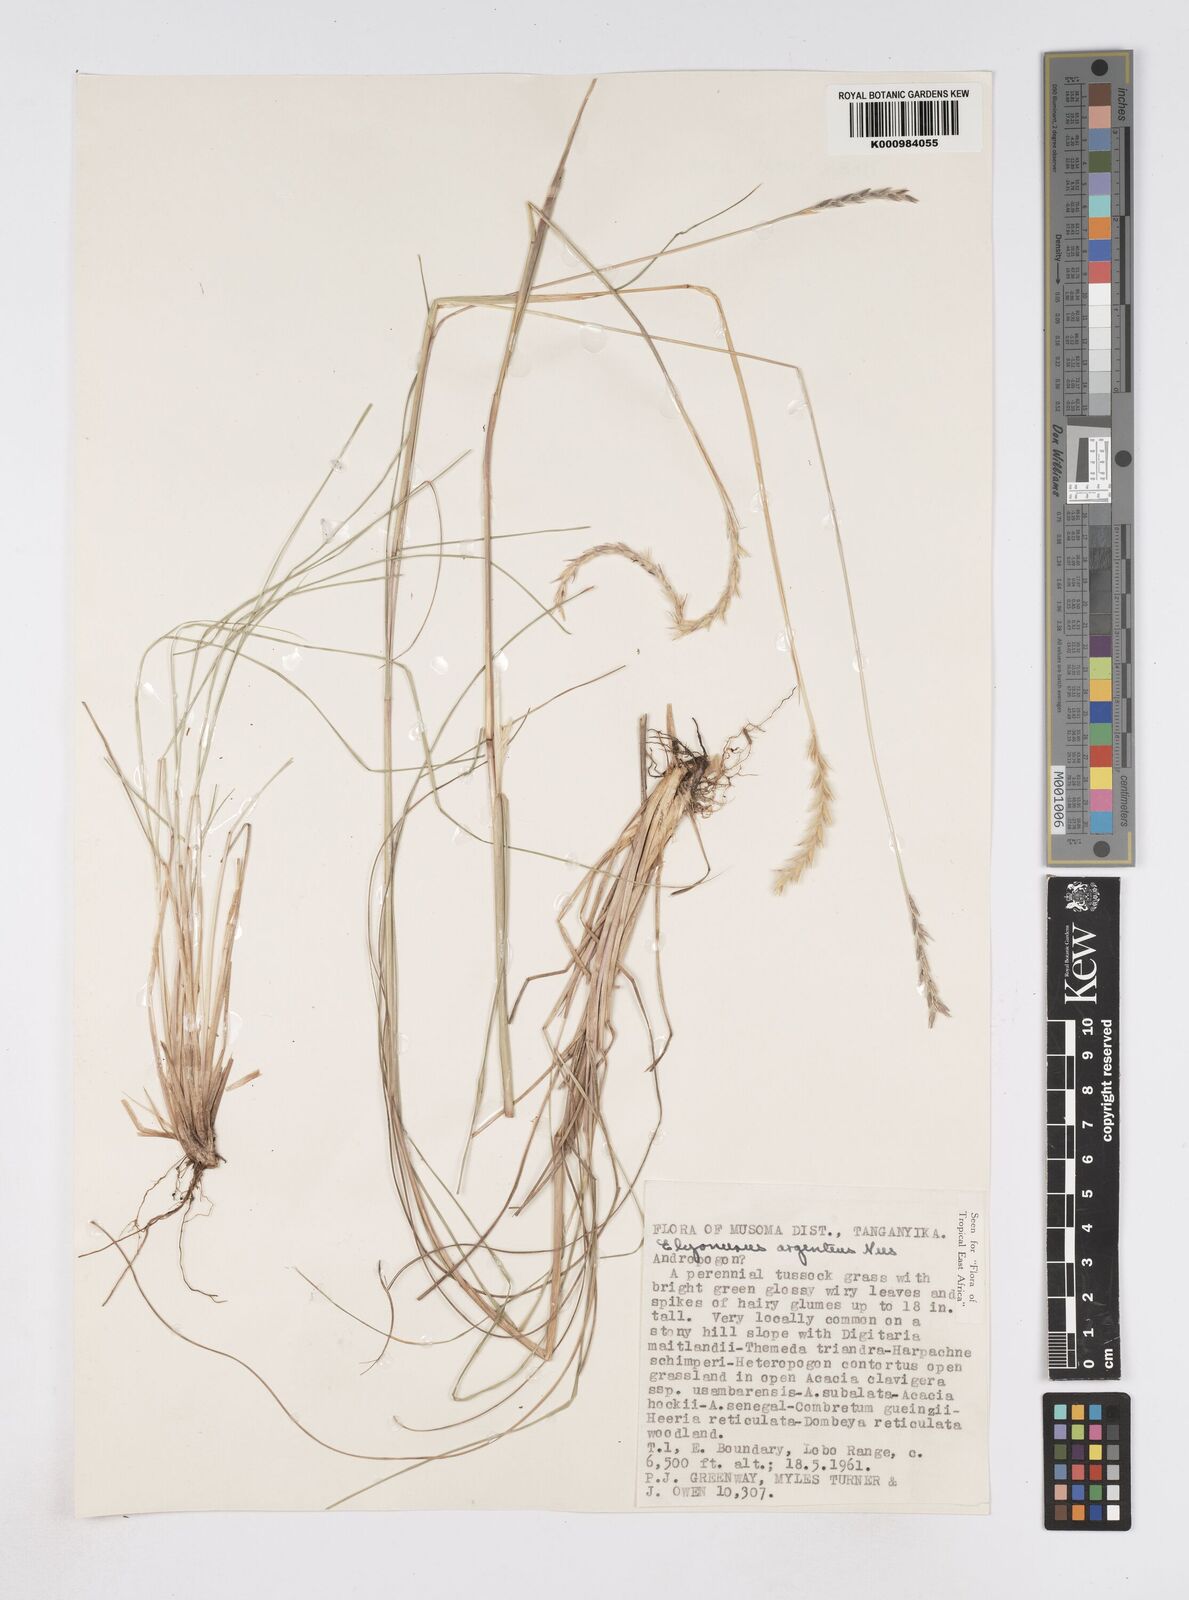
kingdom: Plantae
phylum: Tracheophyta
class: Liliopsida
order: Poales
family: Poaceae
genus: Elionurus
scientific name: Elionurus muticus
